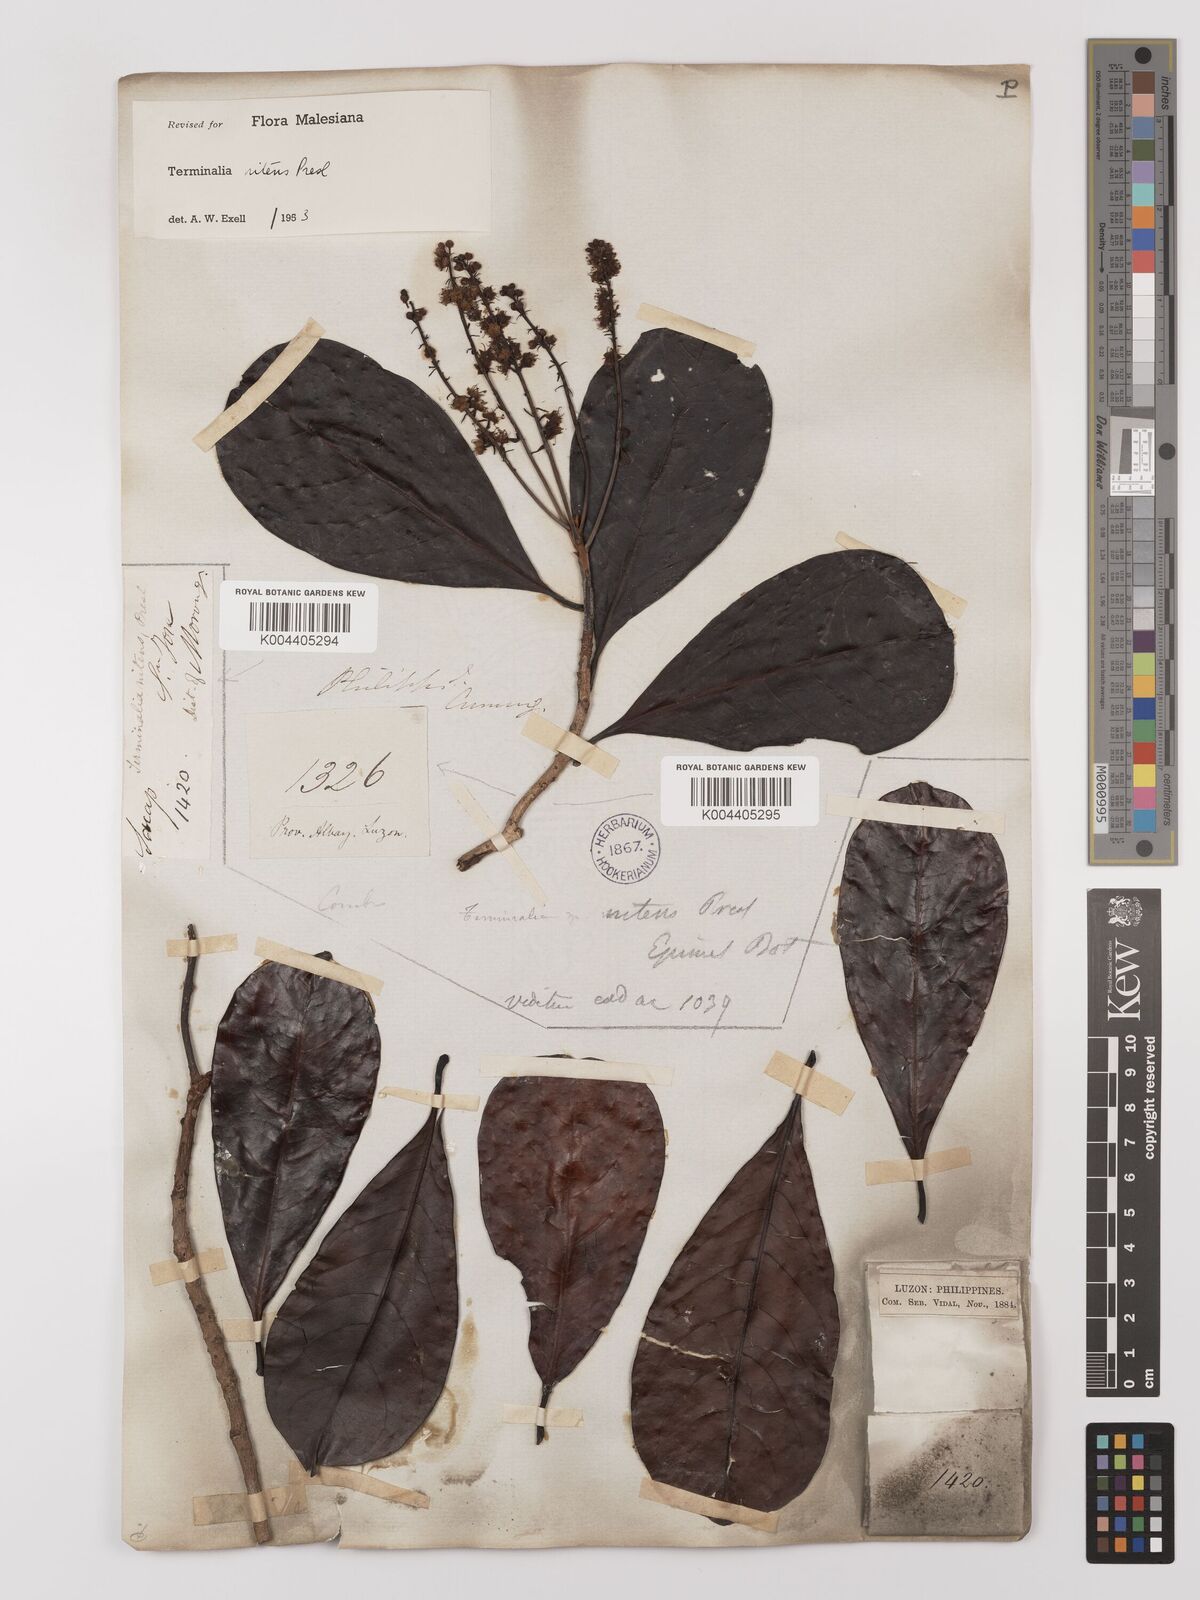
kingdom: Plantae
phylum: Tracheophyta
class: Magnoliopsida
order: Myrtales
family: Combretaceae
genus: Terminalia
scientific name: Terminalia nitens
